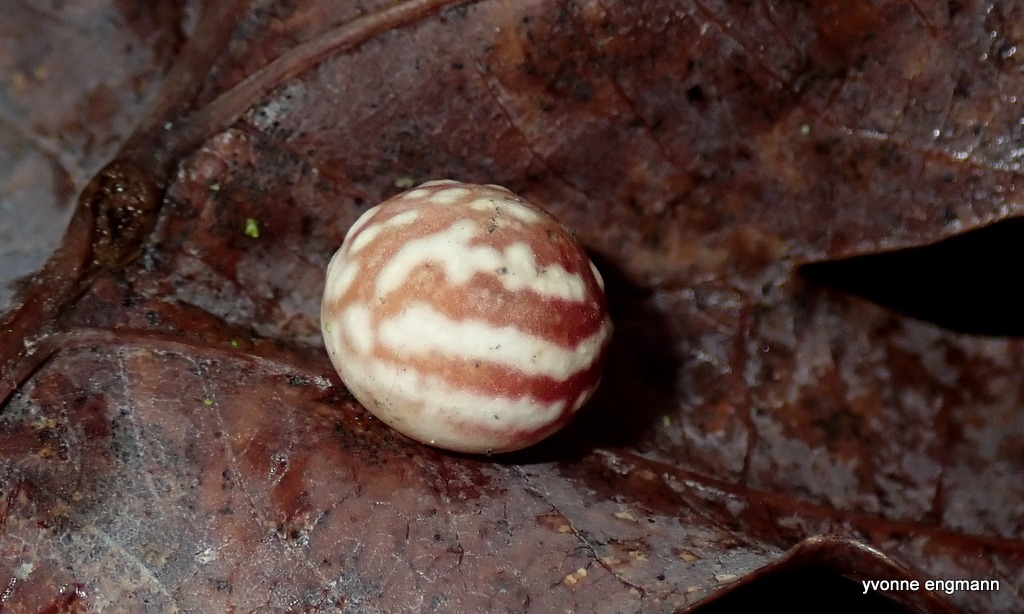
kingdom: Animalia
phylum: Arthropoda
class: Insecta
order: Hymenoptera
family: Cynipidae
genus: Cynips
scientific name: Cynips longiventris
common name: Dannebrogsgalhveps
